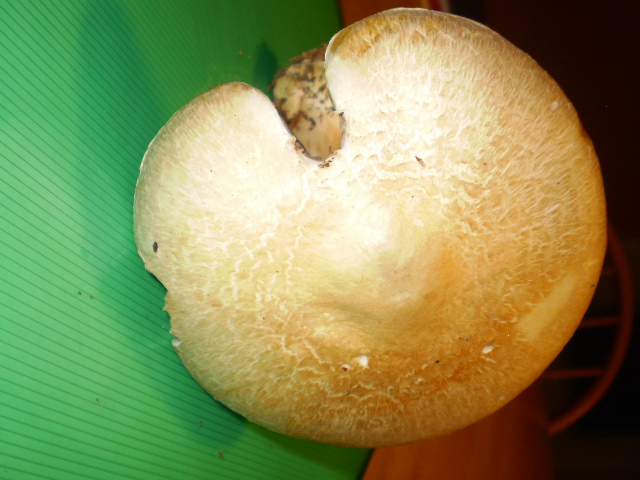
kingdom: Fungi
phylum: Basidiomycota
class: Agaricomycetes
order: Agaricales
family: Agaricaceae
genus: Agaricus
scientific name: Agaricus sylvicola
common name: skiveknoldet champignon
